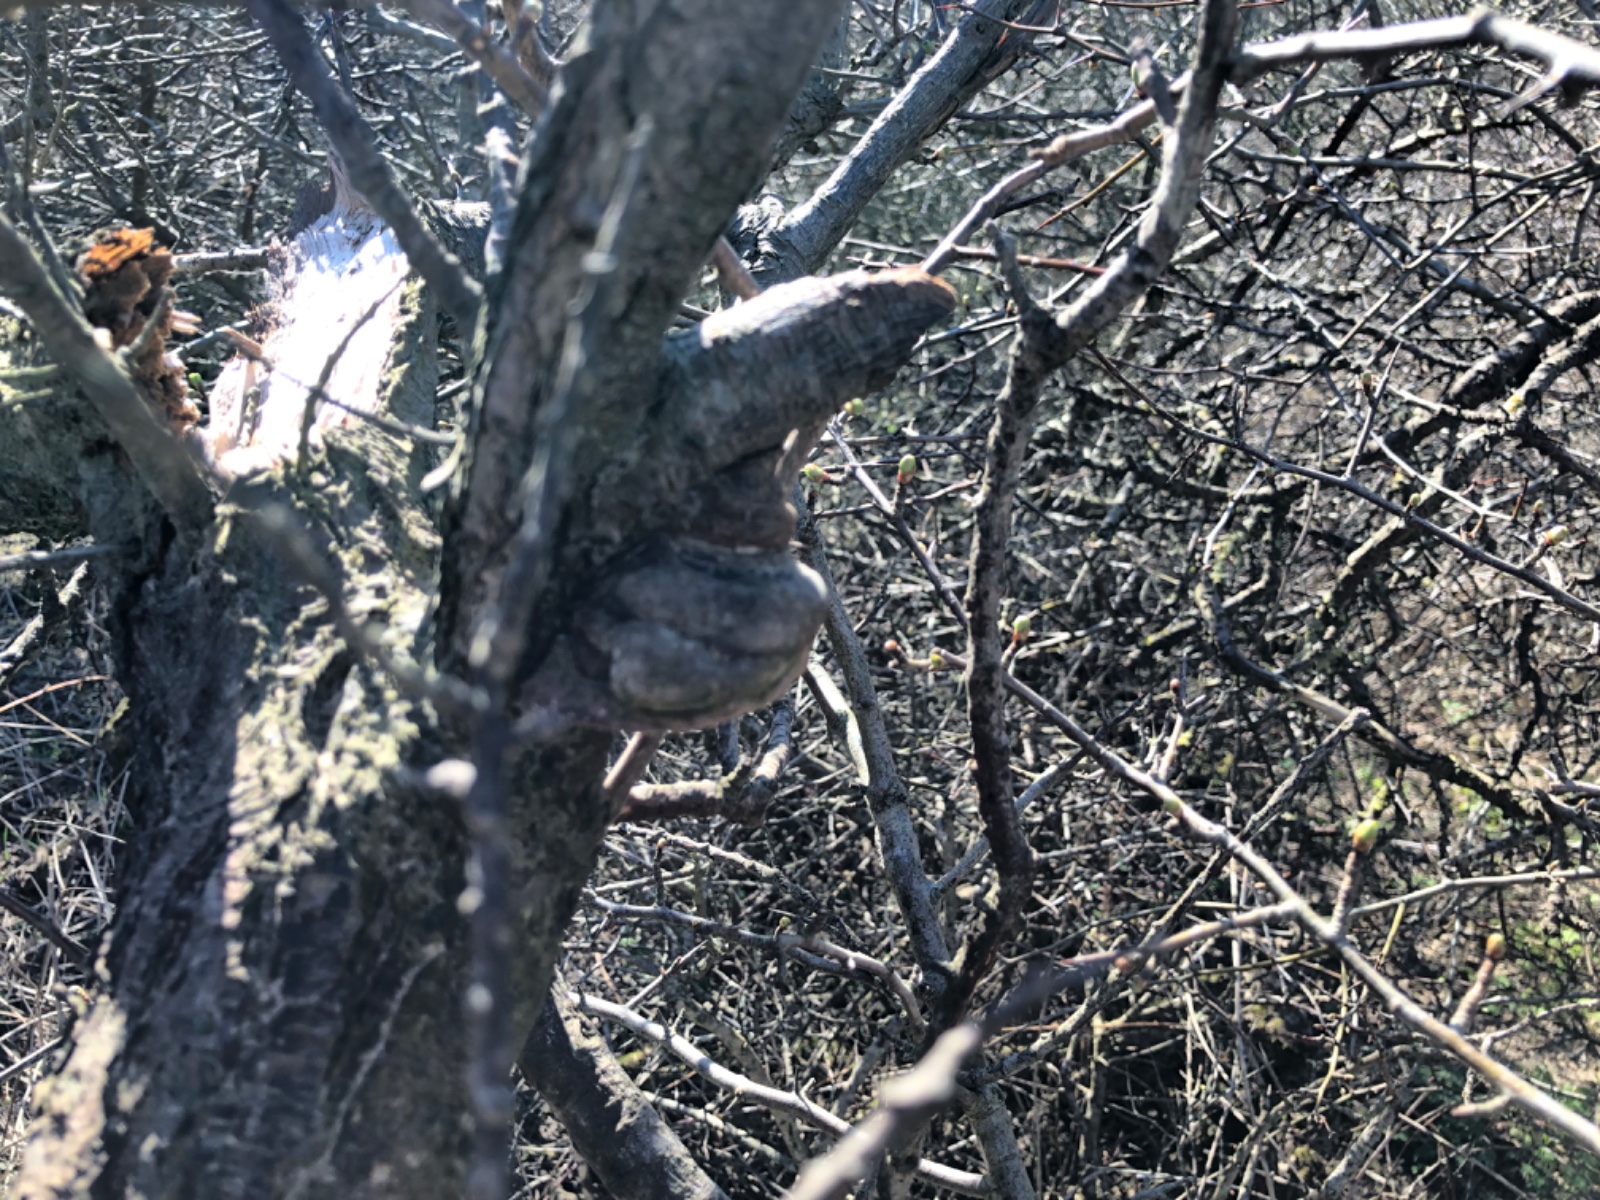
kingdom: Fungi
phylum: Basidiomycota
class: Agaricomycetes
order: Hymenochaetales
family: Hymenochaetaceae
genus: Fomitiporia
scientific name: Fomitiporia hippophaeicola
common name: havtorn-ildporesvamp
